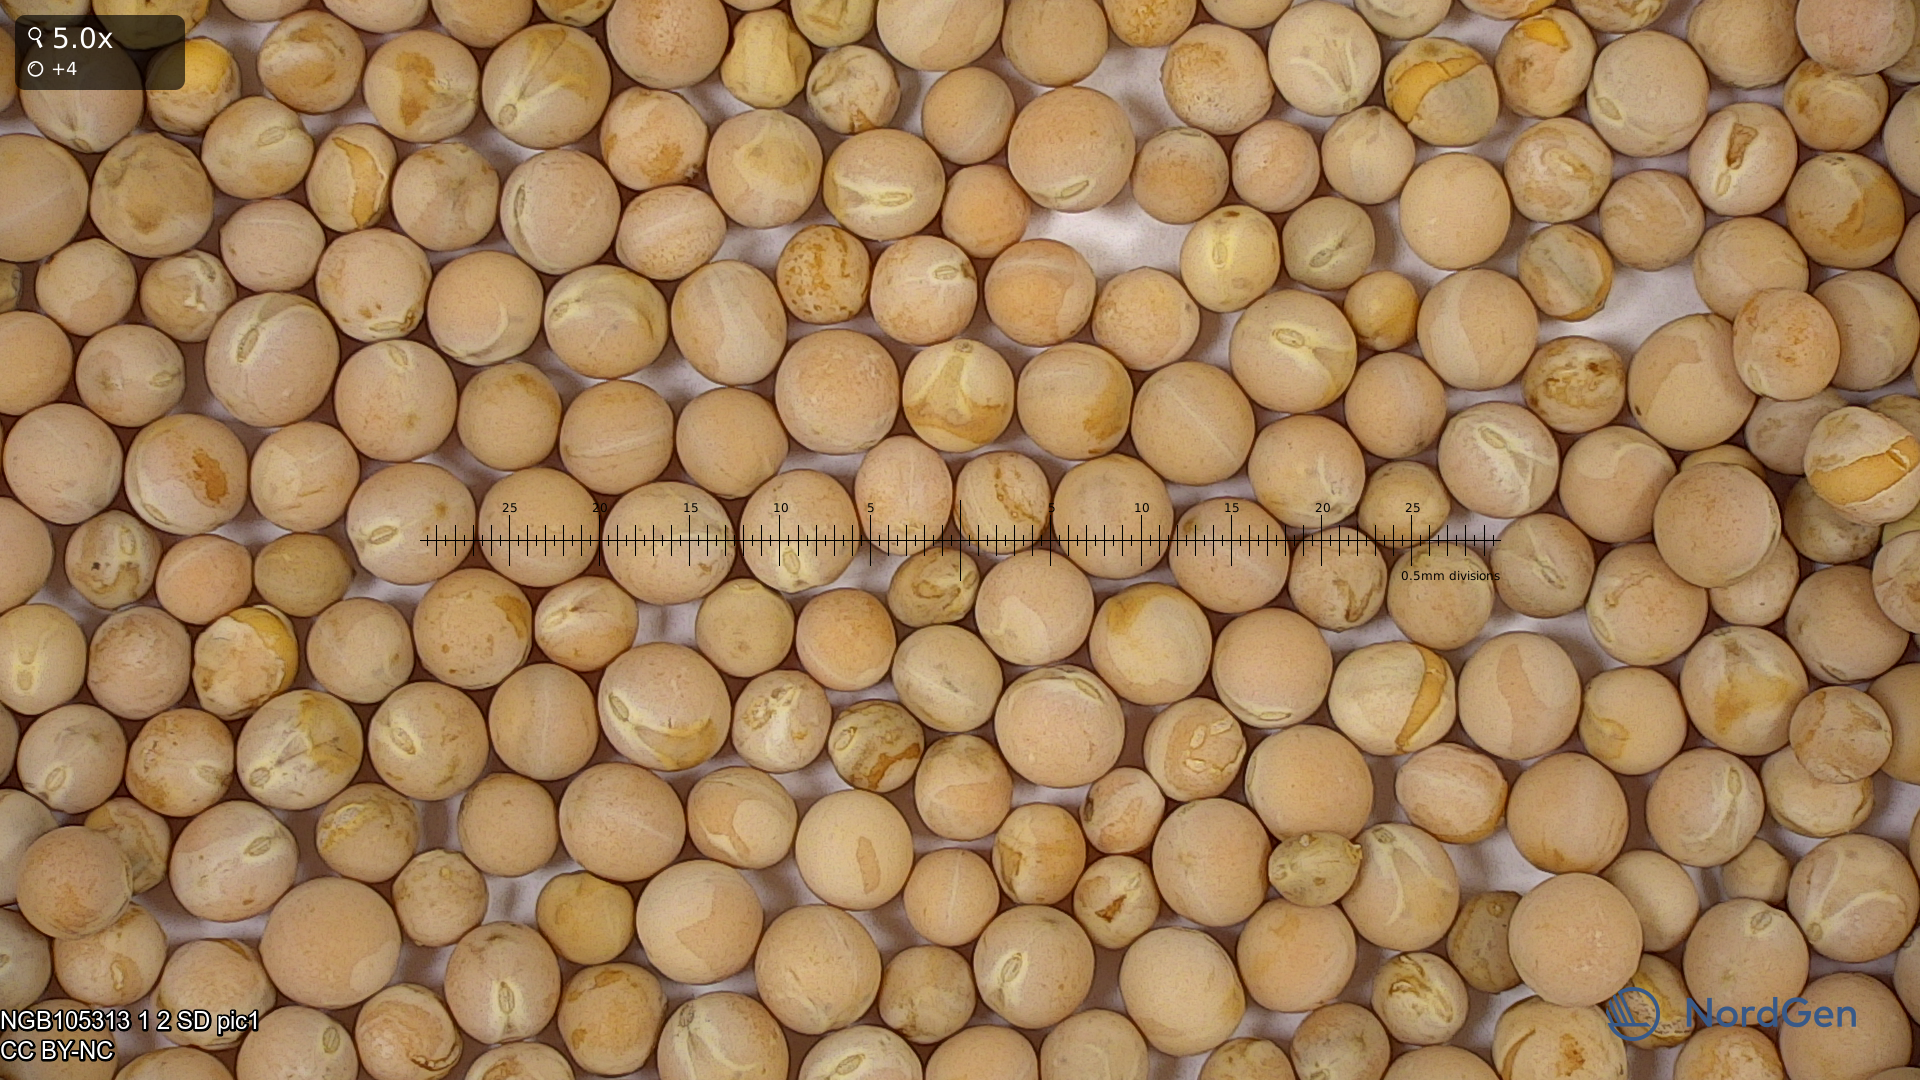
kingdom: Plantae
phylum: Tracheophyta
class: Magnoliopsida
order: Fabales
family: Fabaceae
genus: Lathyrus
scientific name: Lathyrus oleraceus
